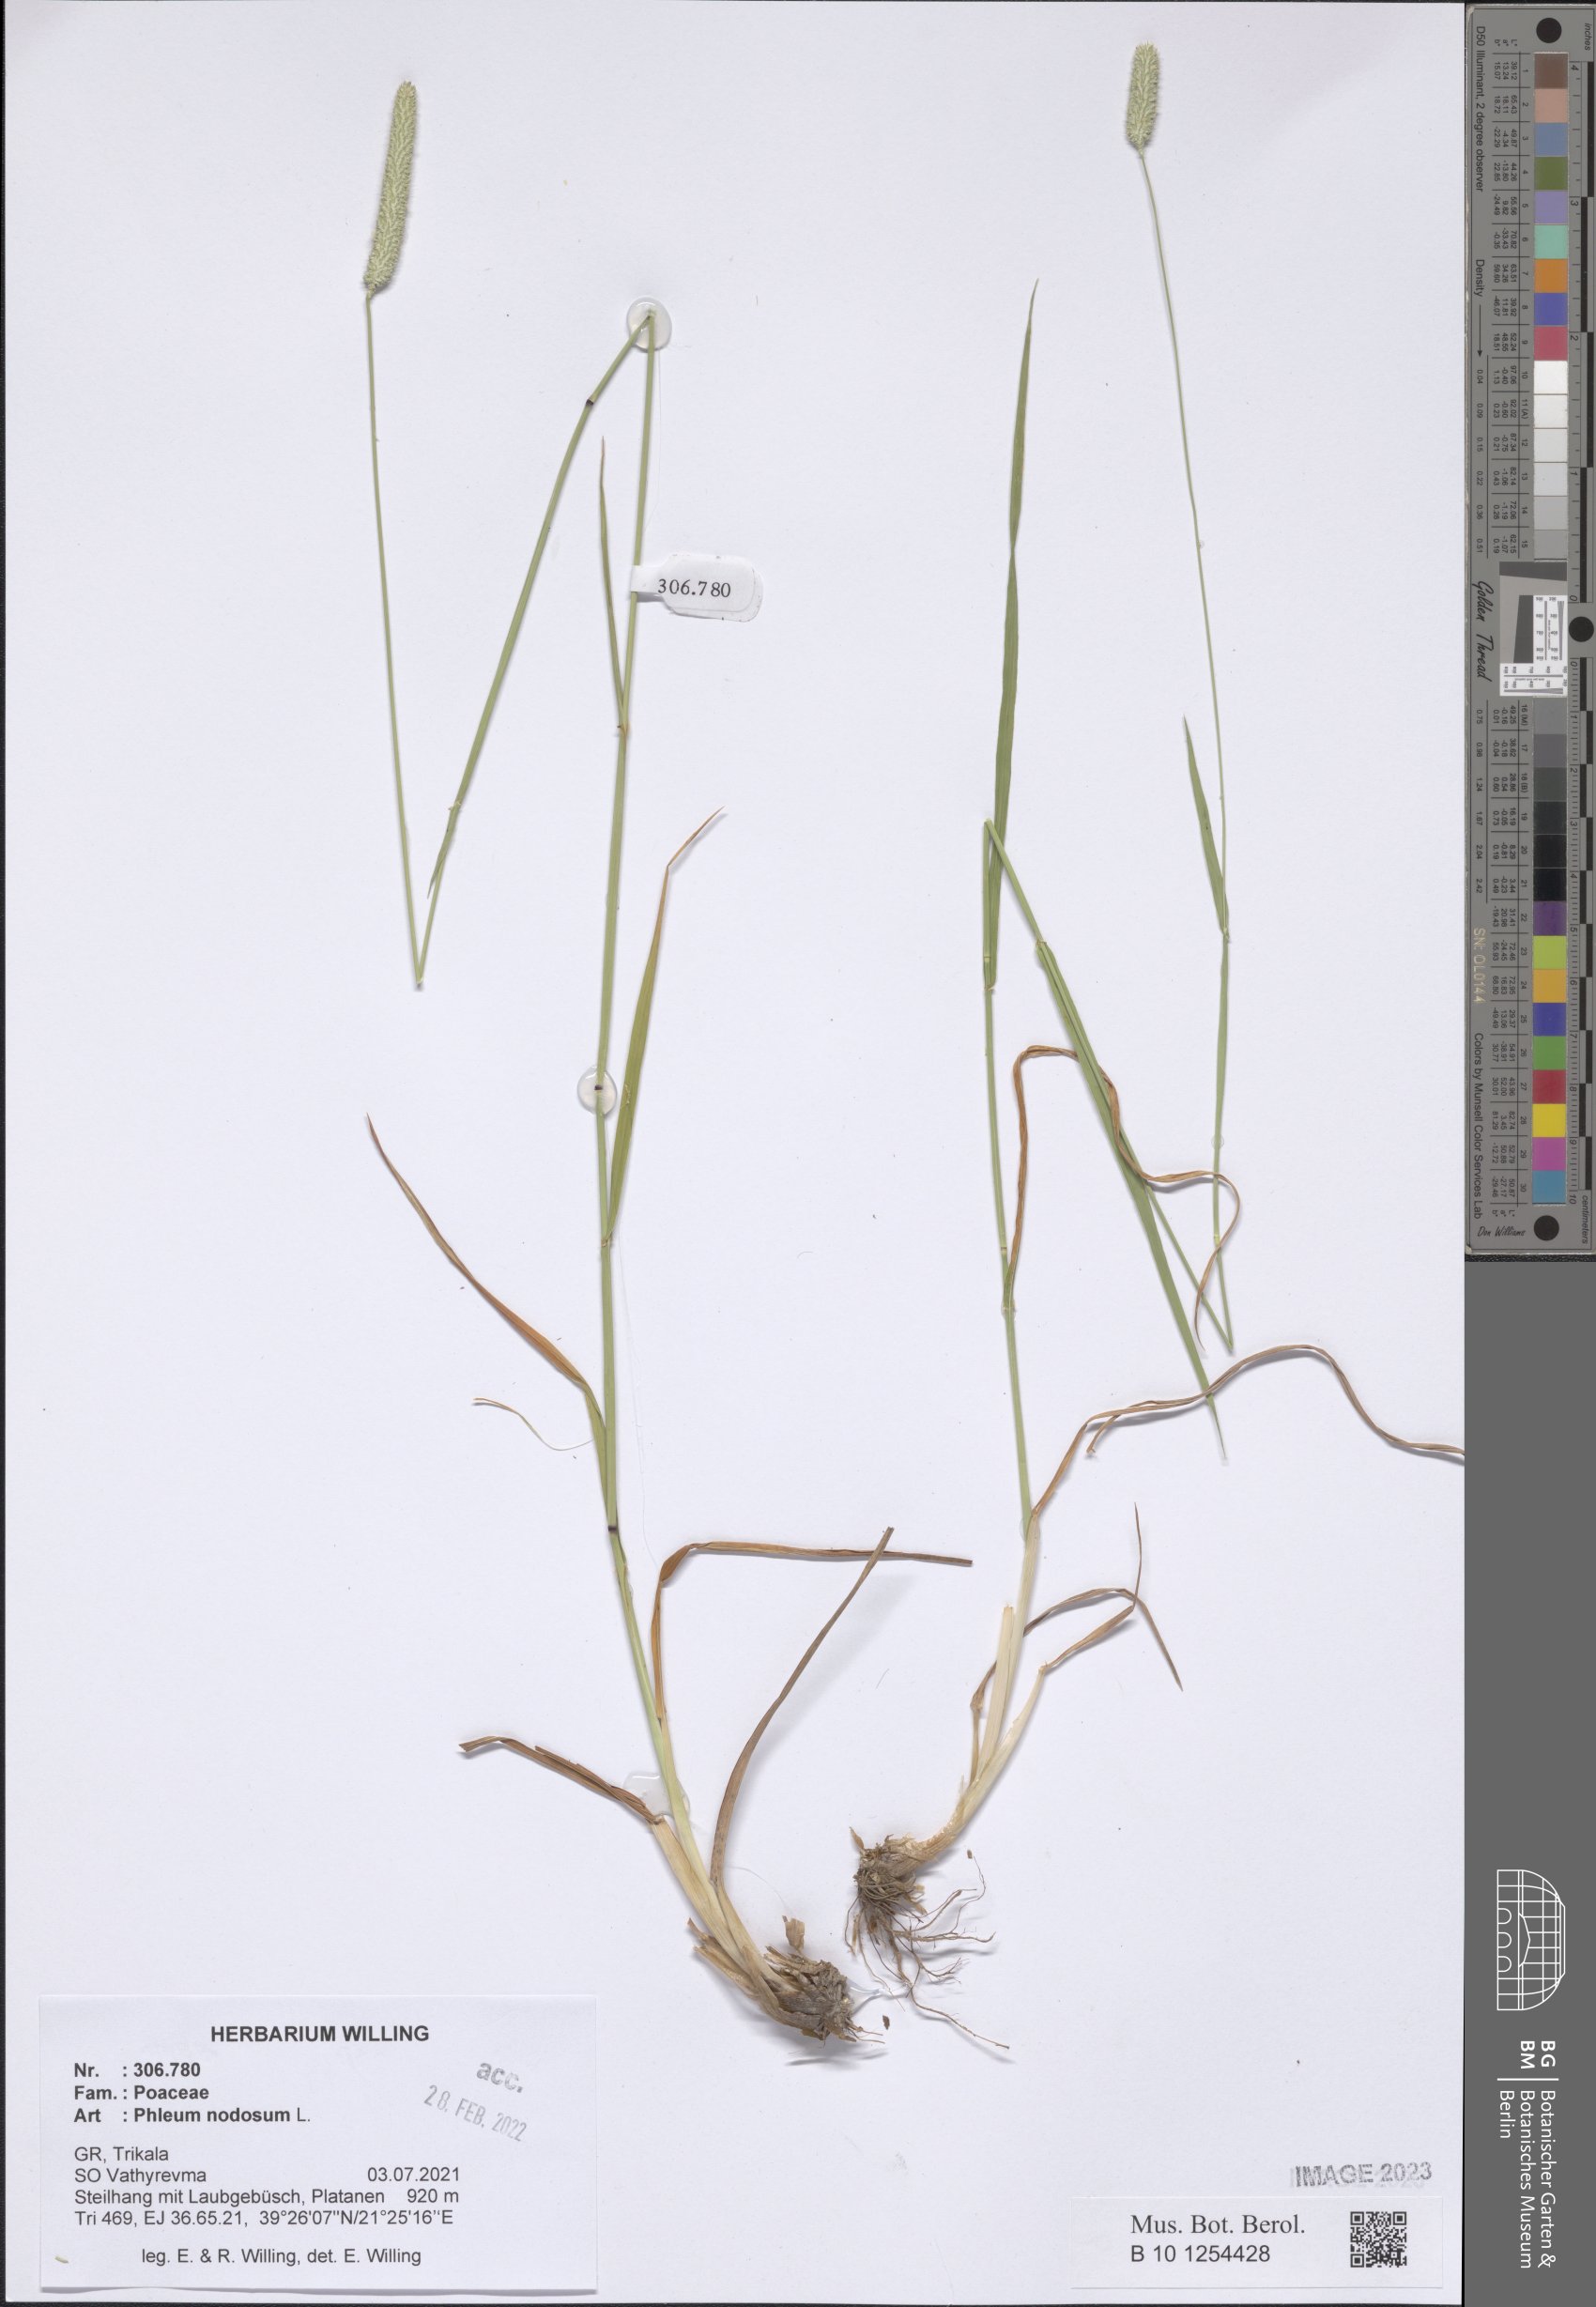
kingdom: Plantae
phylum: Tracheophyta
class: Liliopsida
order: Poales
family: Poaceae
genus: Phleum
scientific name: Phleum pratense
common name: Timothy grass
